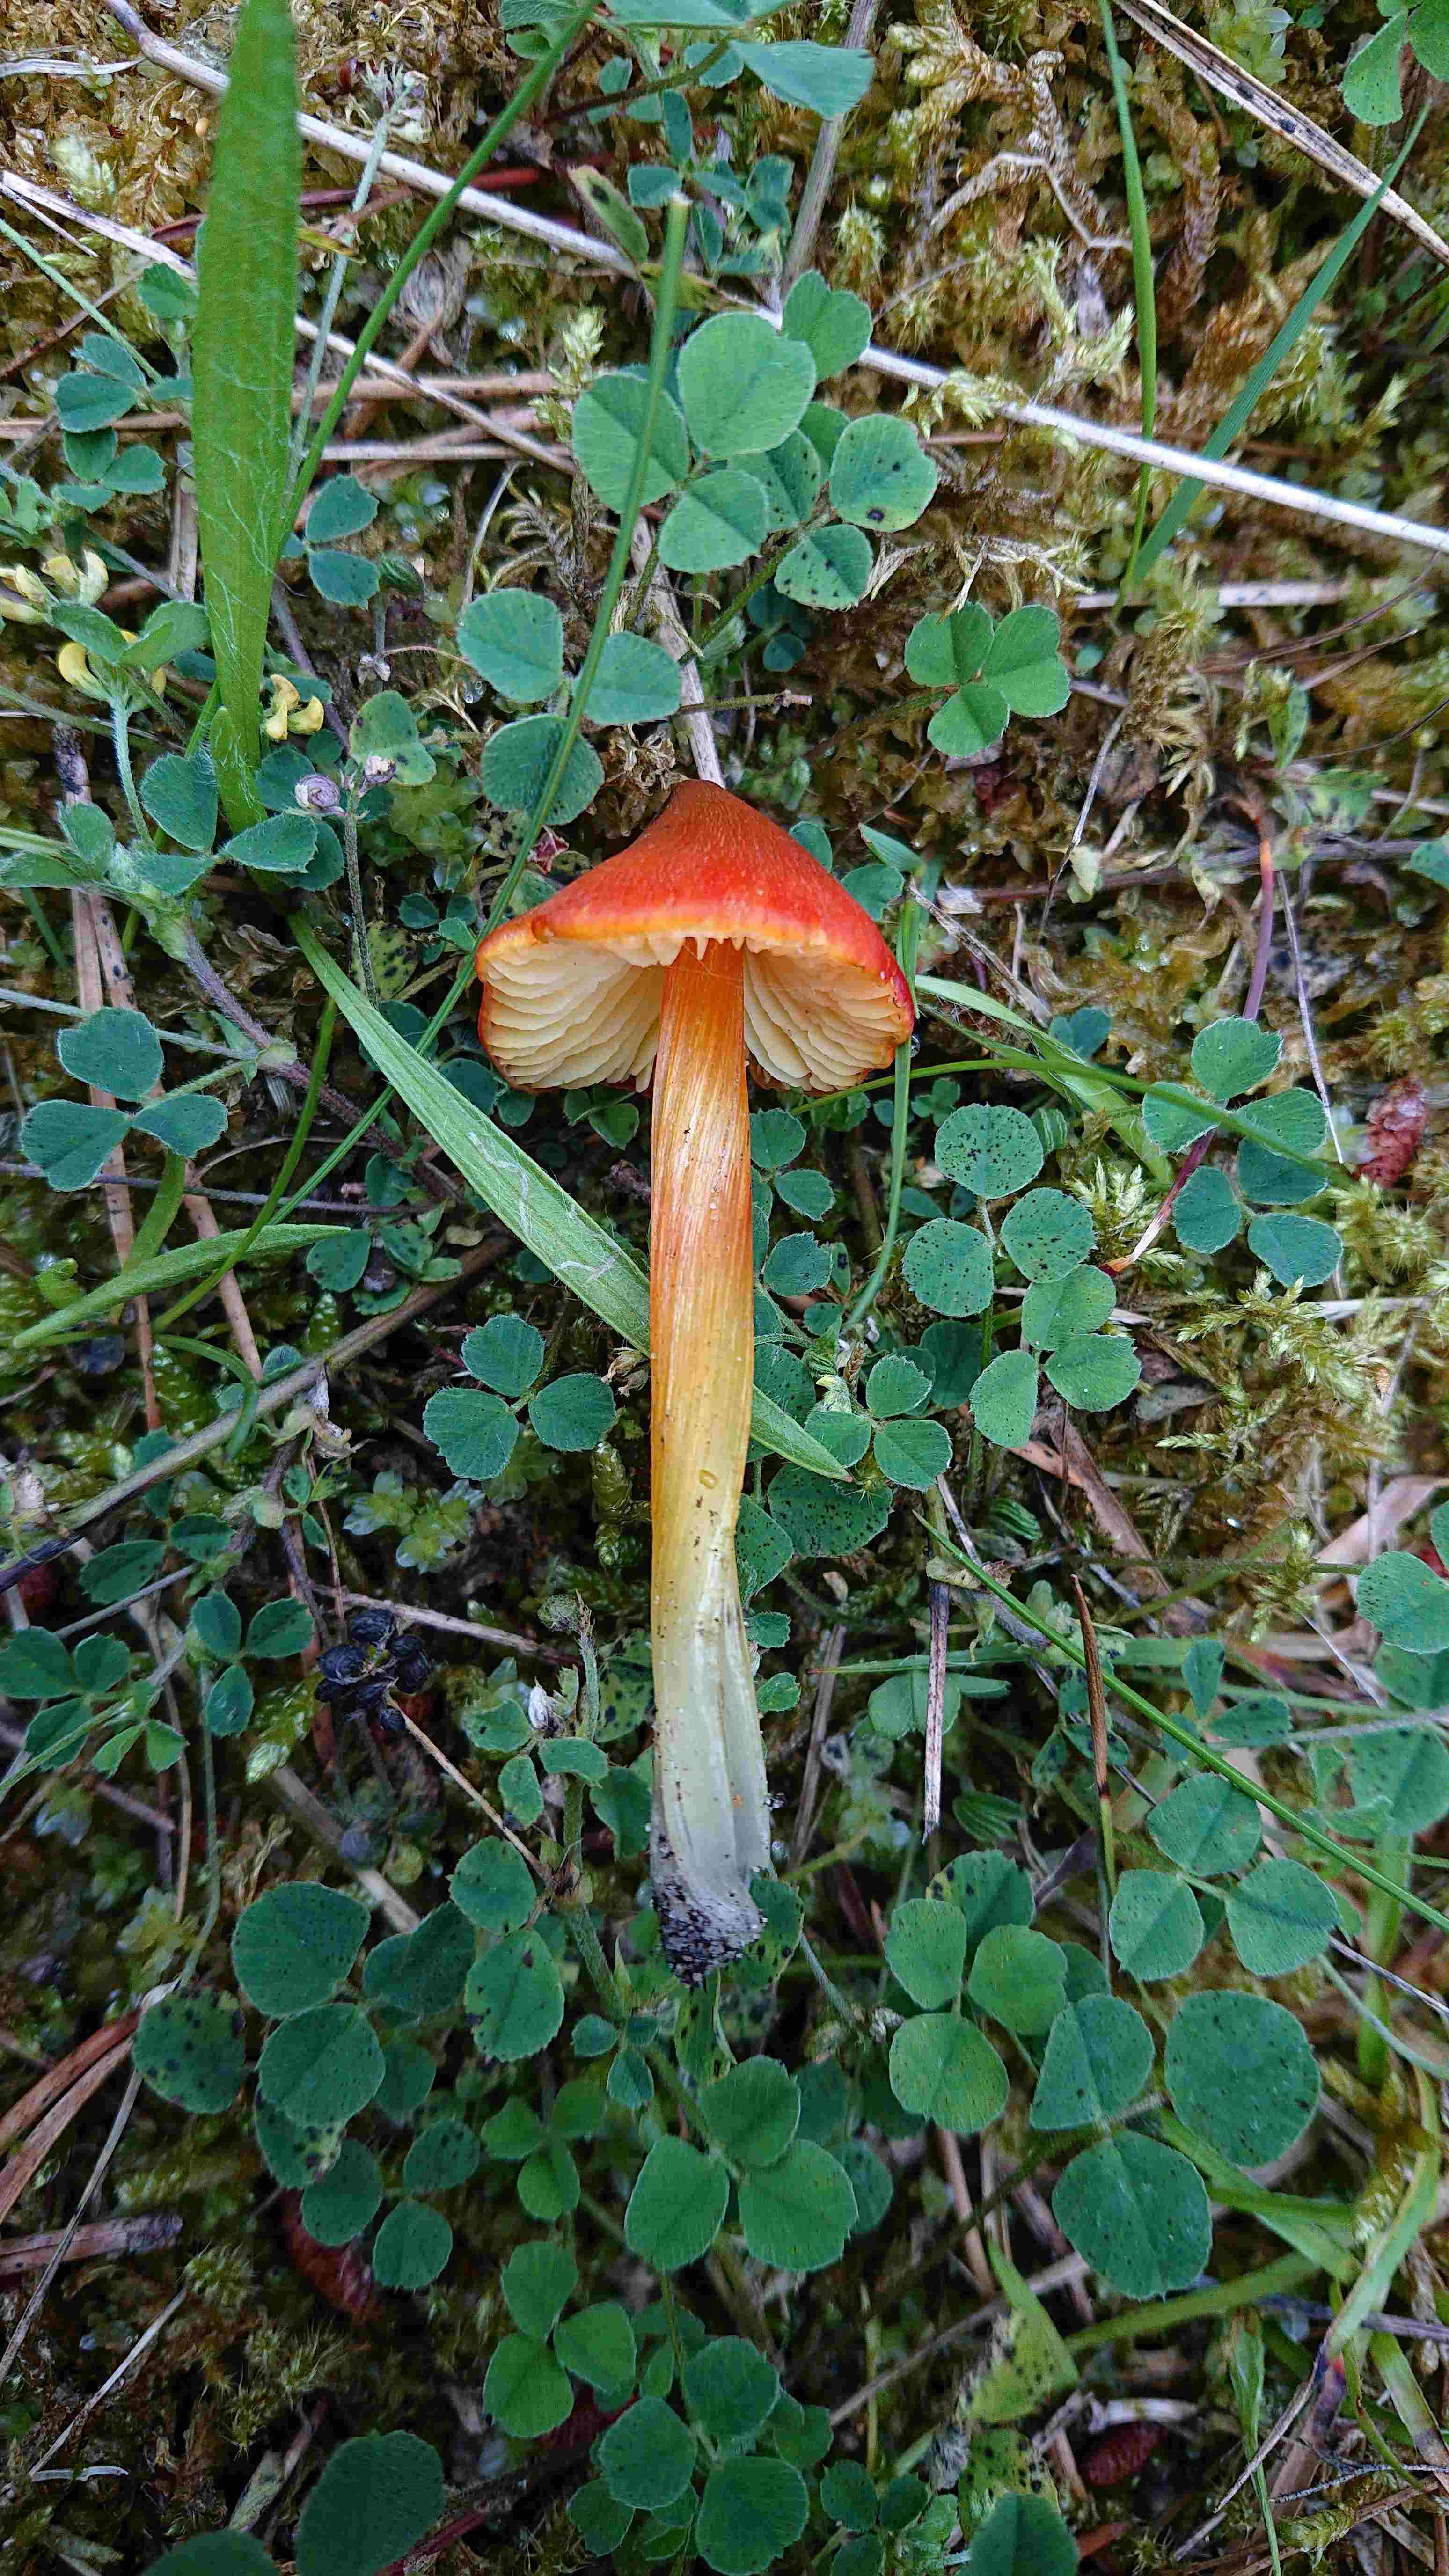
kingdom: Fungi
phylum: Basidiomycota
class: Agaricomycetes
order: Agaricales
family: Hygrophoraceae
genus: Hygrocybe
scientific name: Hygrocybe
